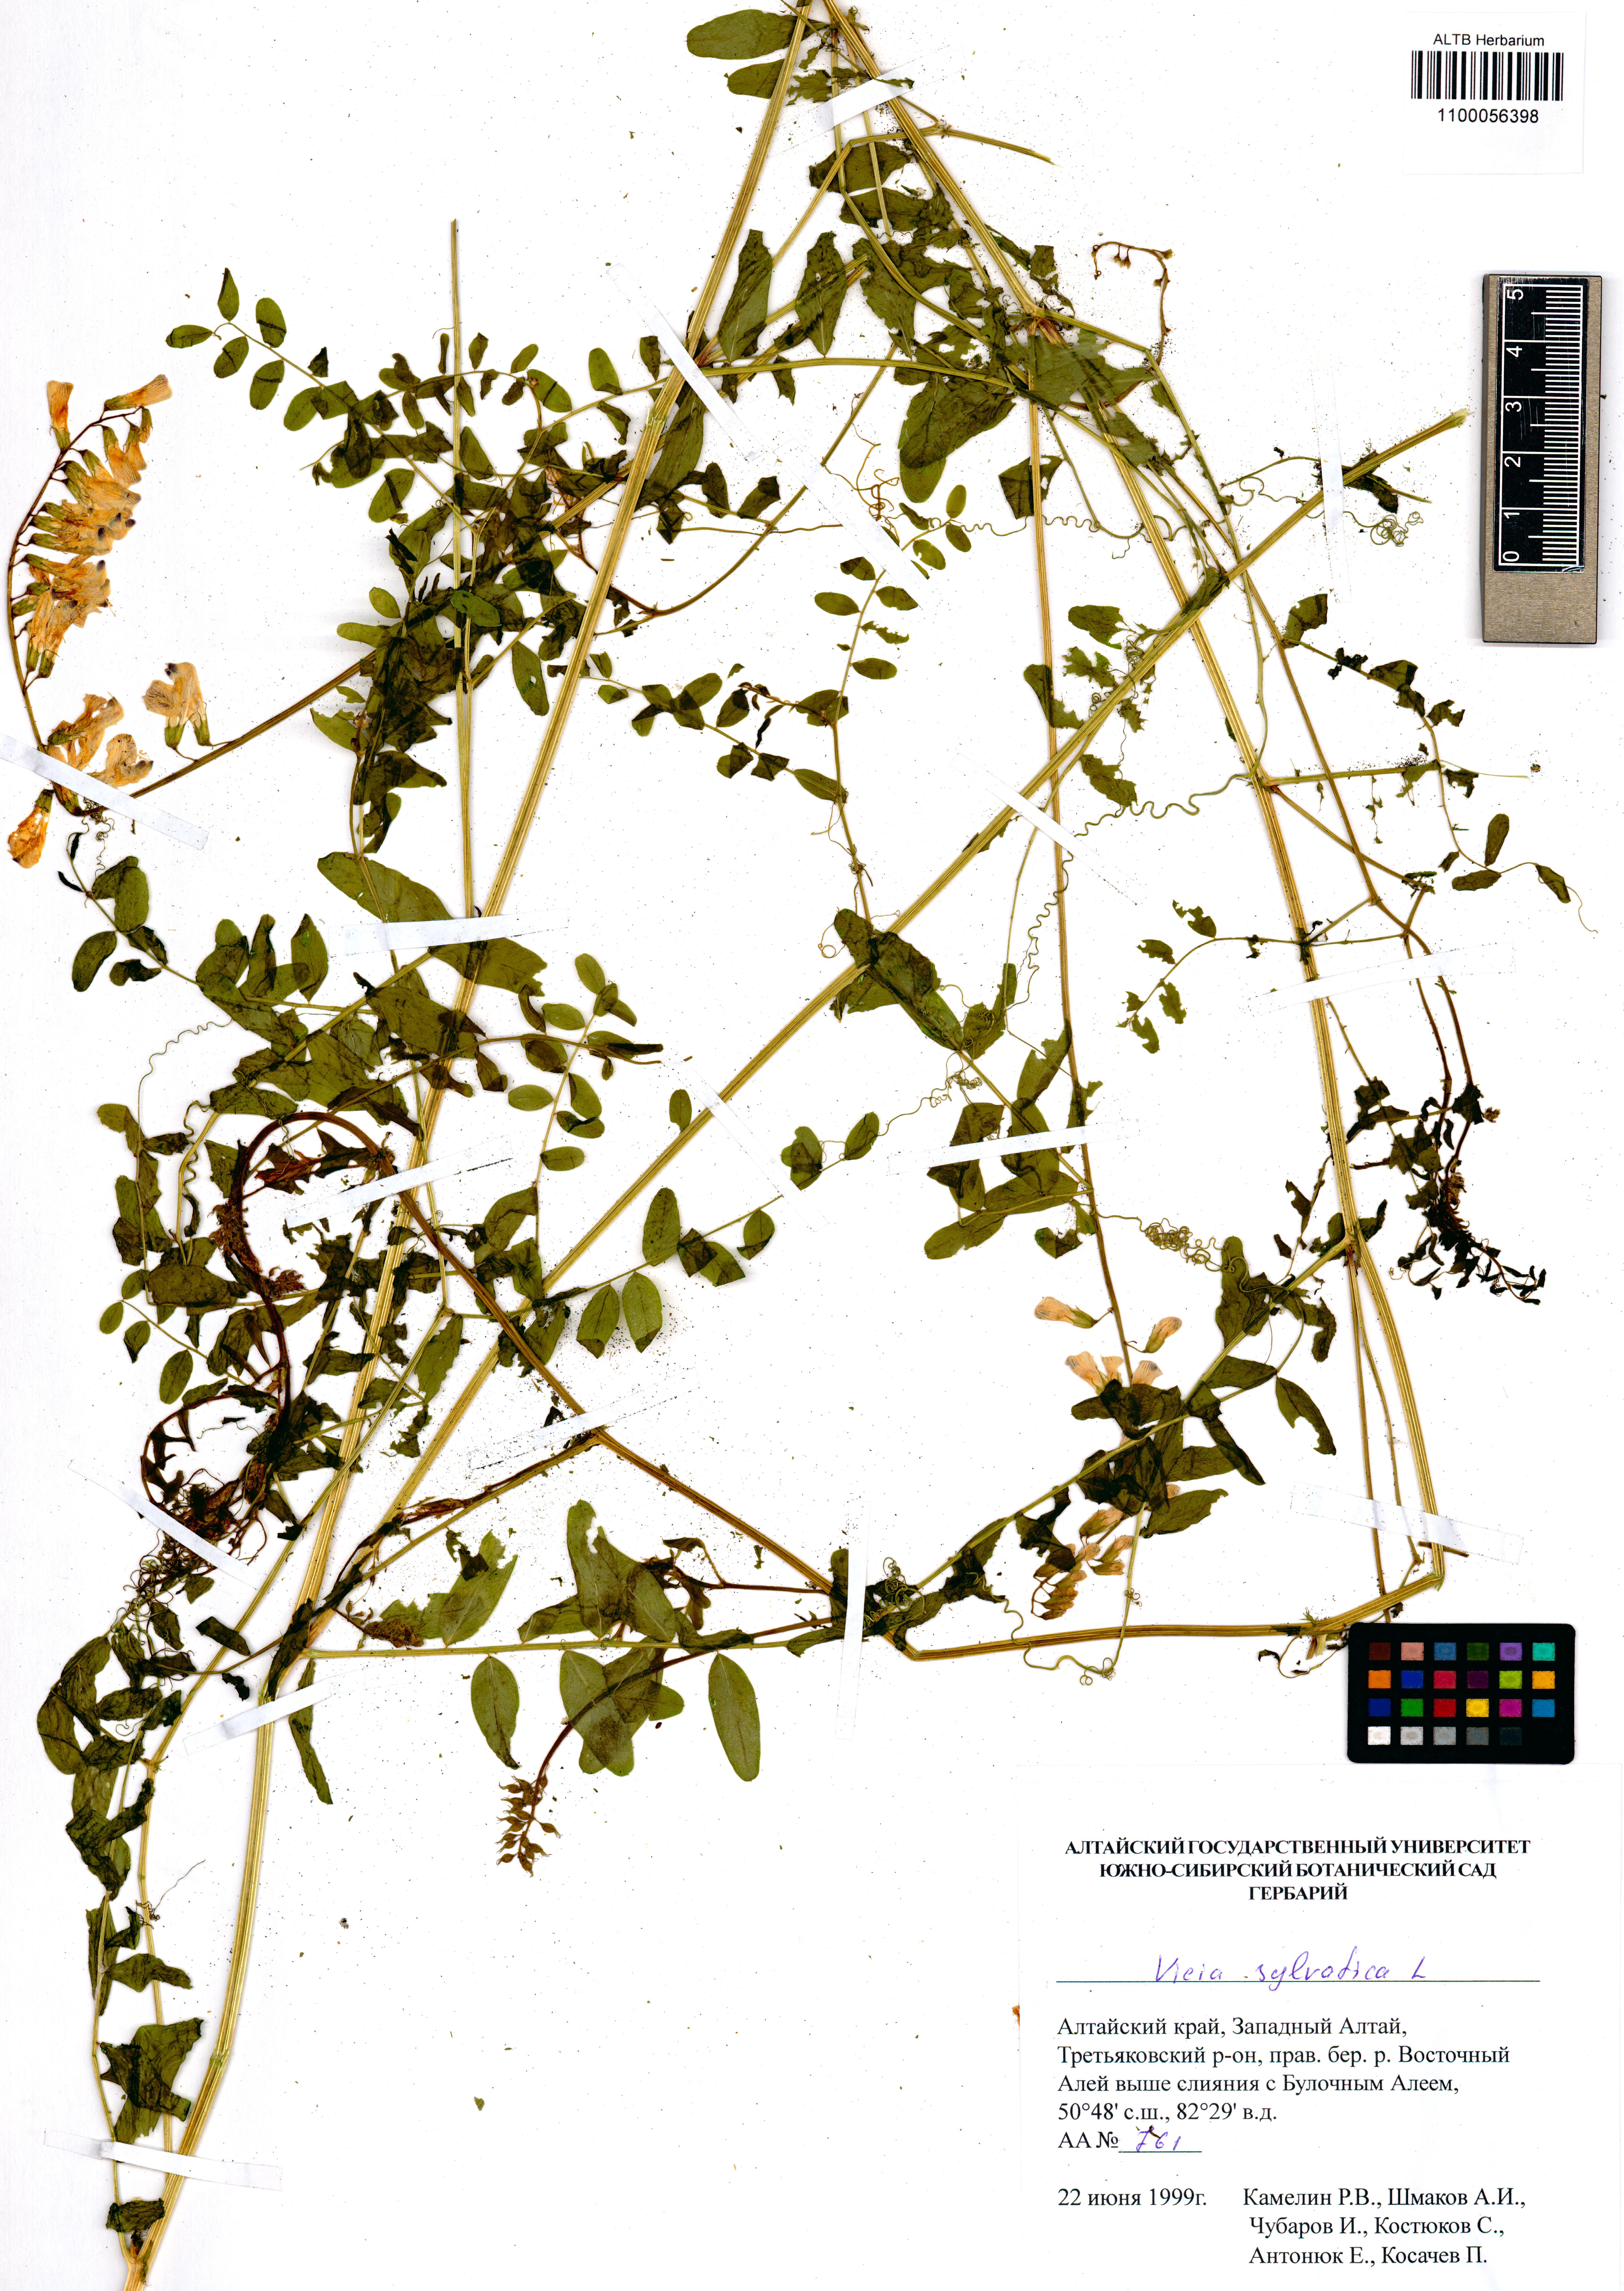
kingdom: Plantae
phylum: Tracheophyta
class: Magnoliopsida
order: Fabales
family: Fabaceae
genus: Vicia
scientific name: Vicia sylvatica
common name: Wood vetch
